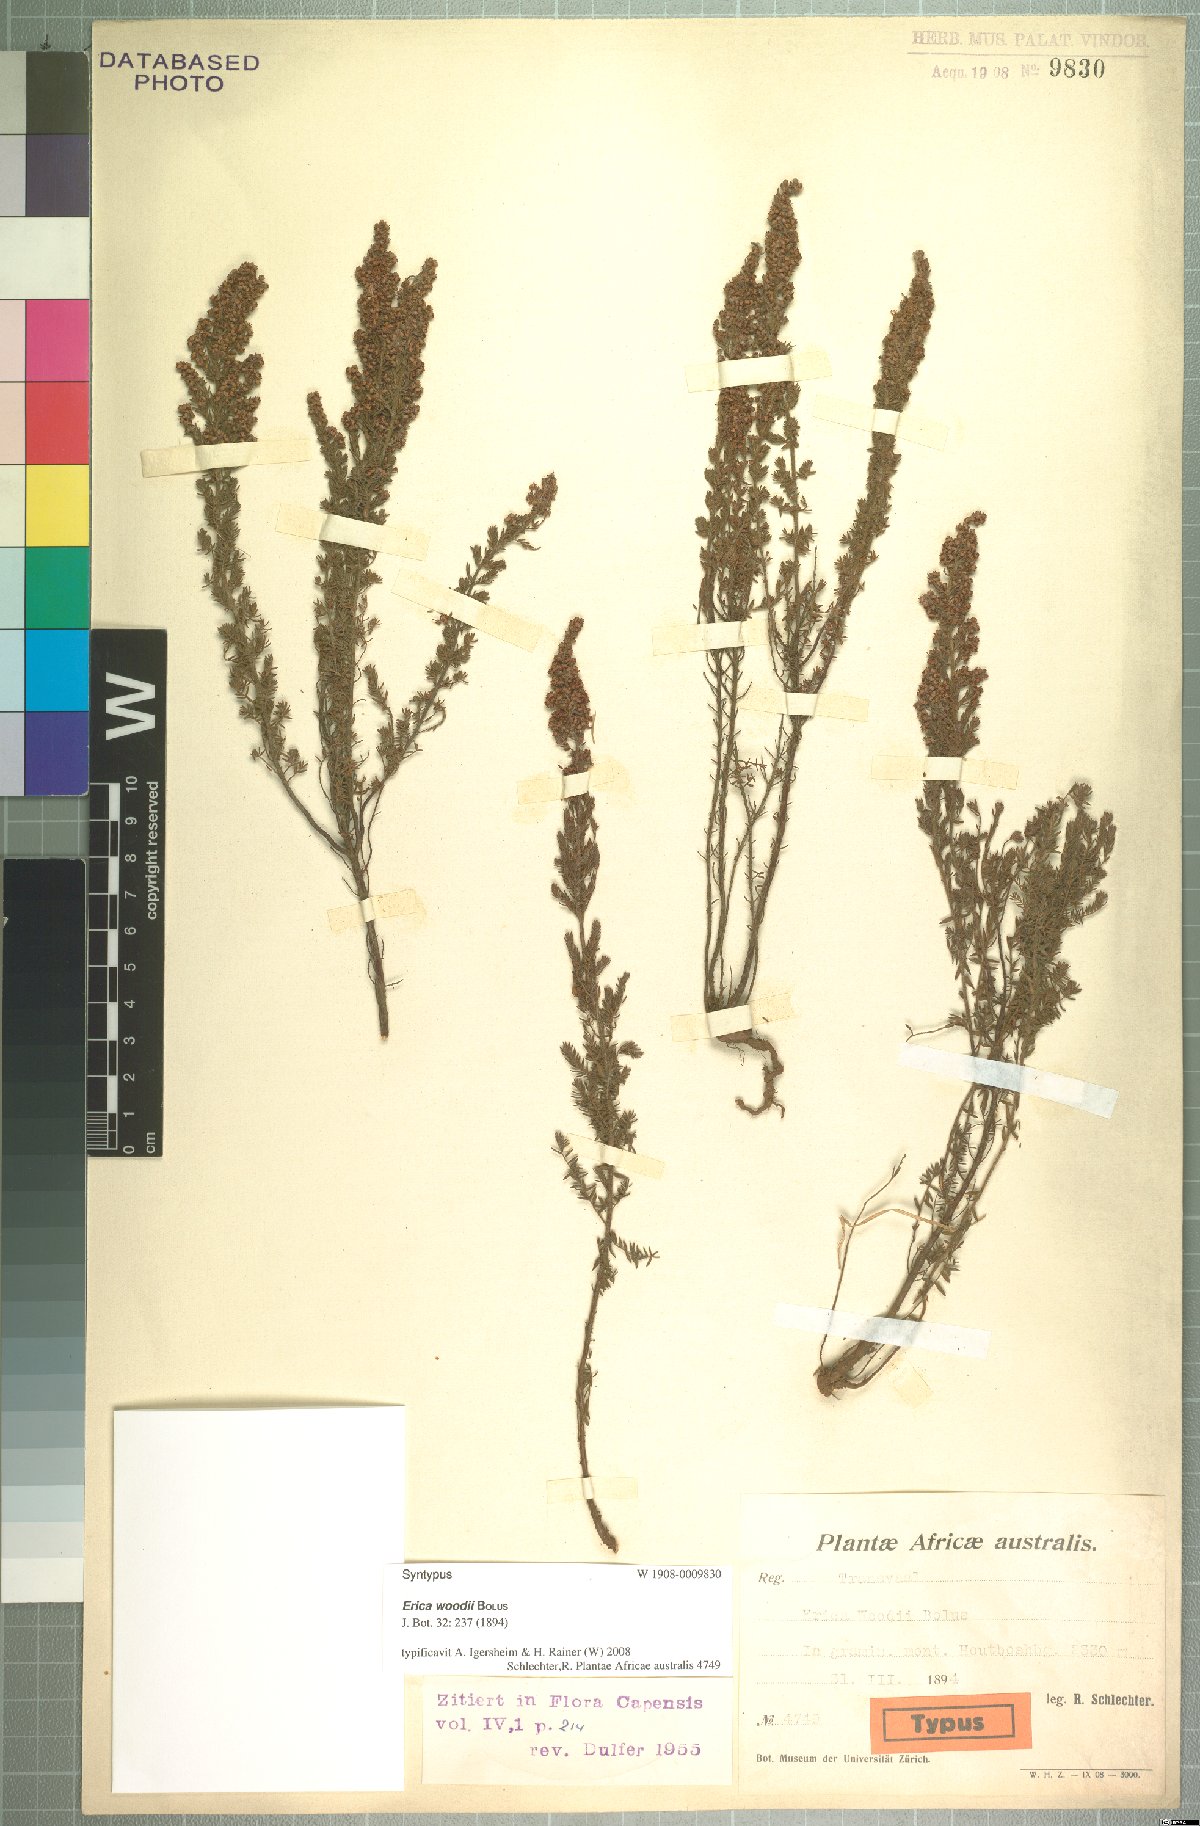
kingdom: Plantae
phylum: Tracheophyta
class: Magnoliopsida
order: Ericales
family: Ericaceae
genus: Erica
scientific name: Erica woodii
